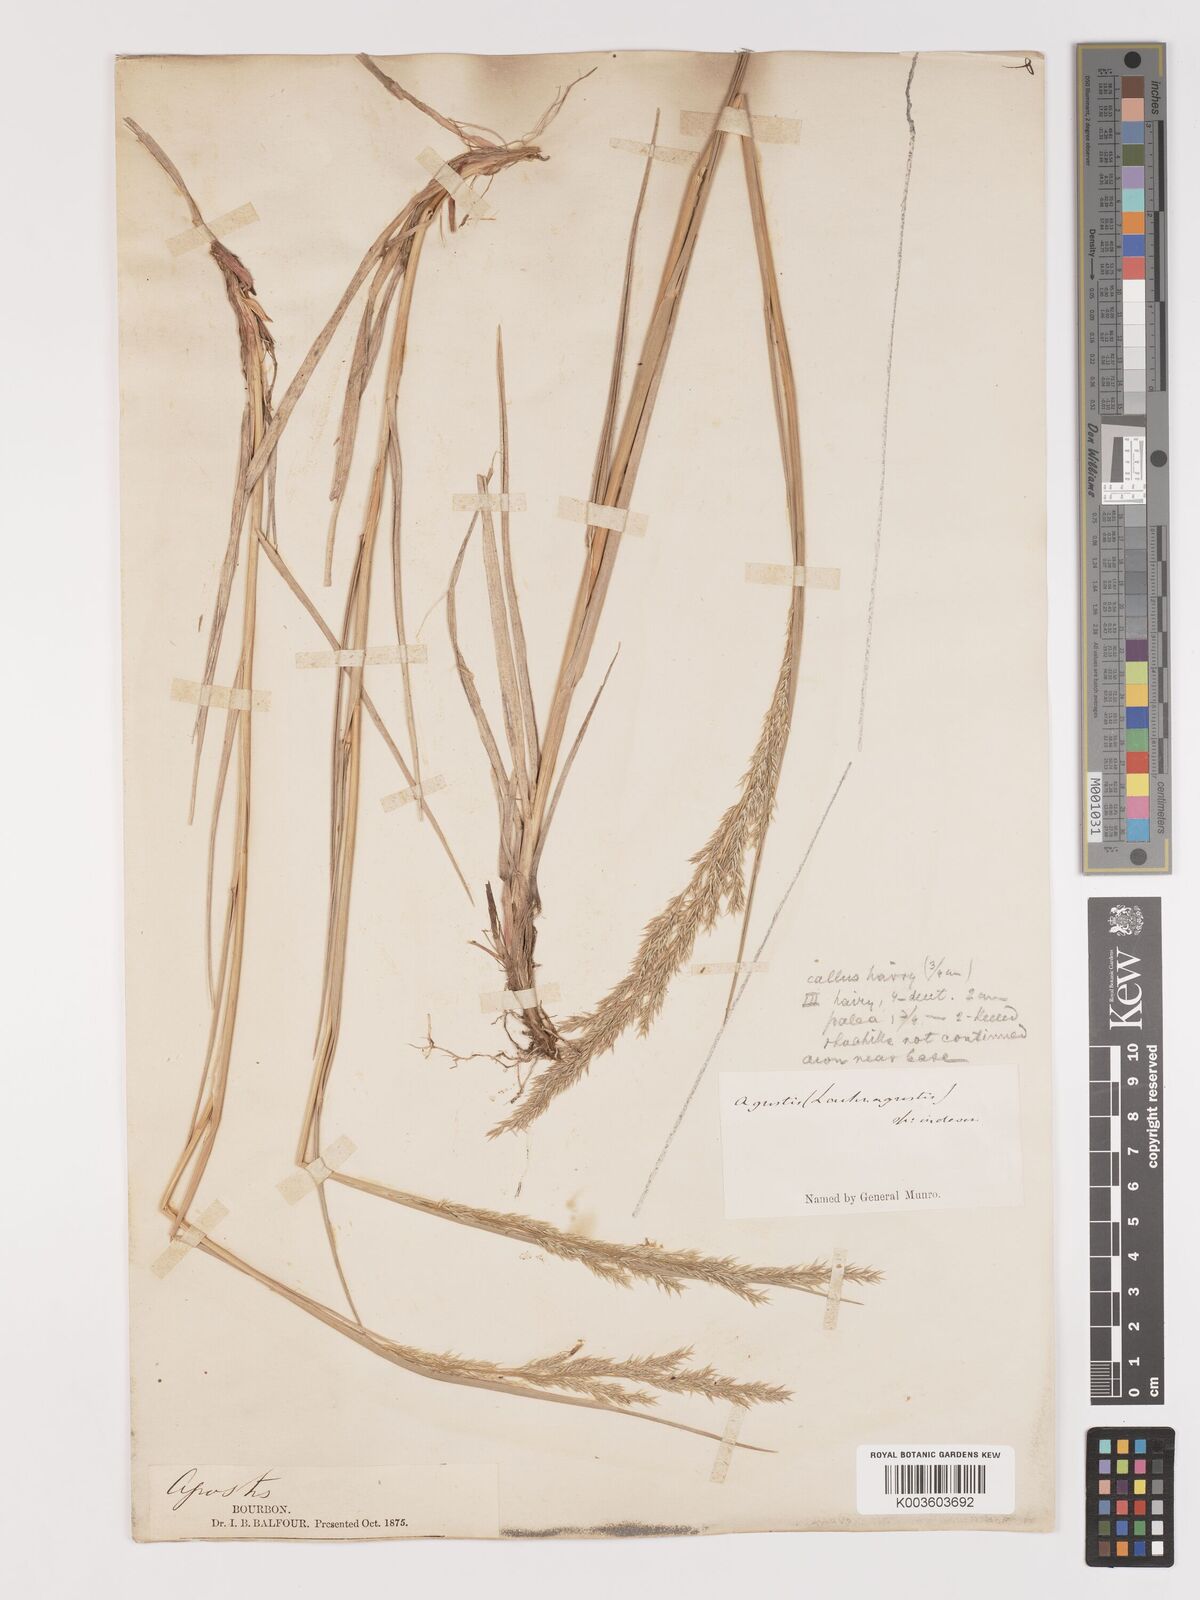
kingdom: Plantae
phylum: Tracheophyta
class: Liliopsida
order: Poales
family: Poaceae
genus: Agrostis
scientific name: Agrostis salaziensis
